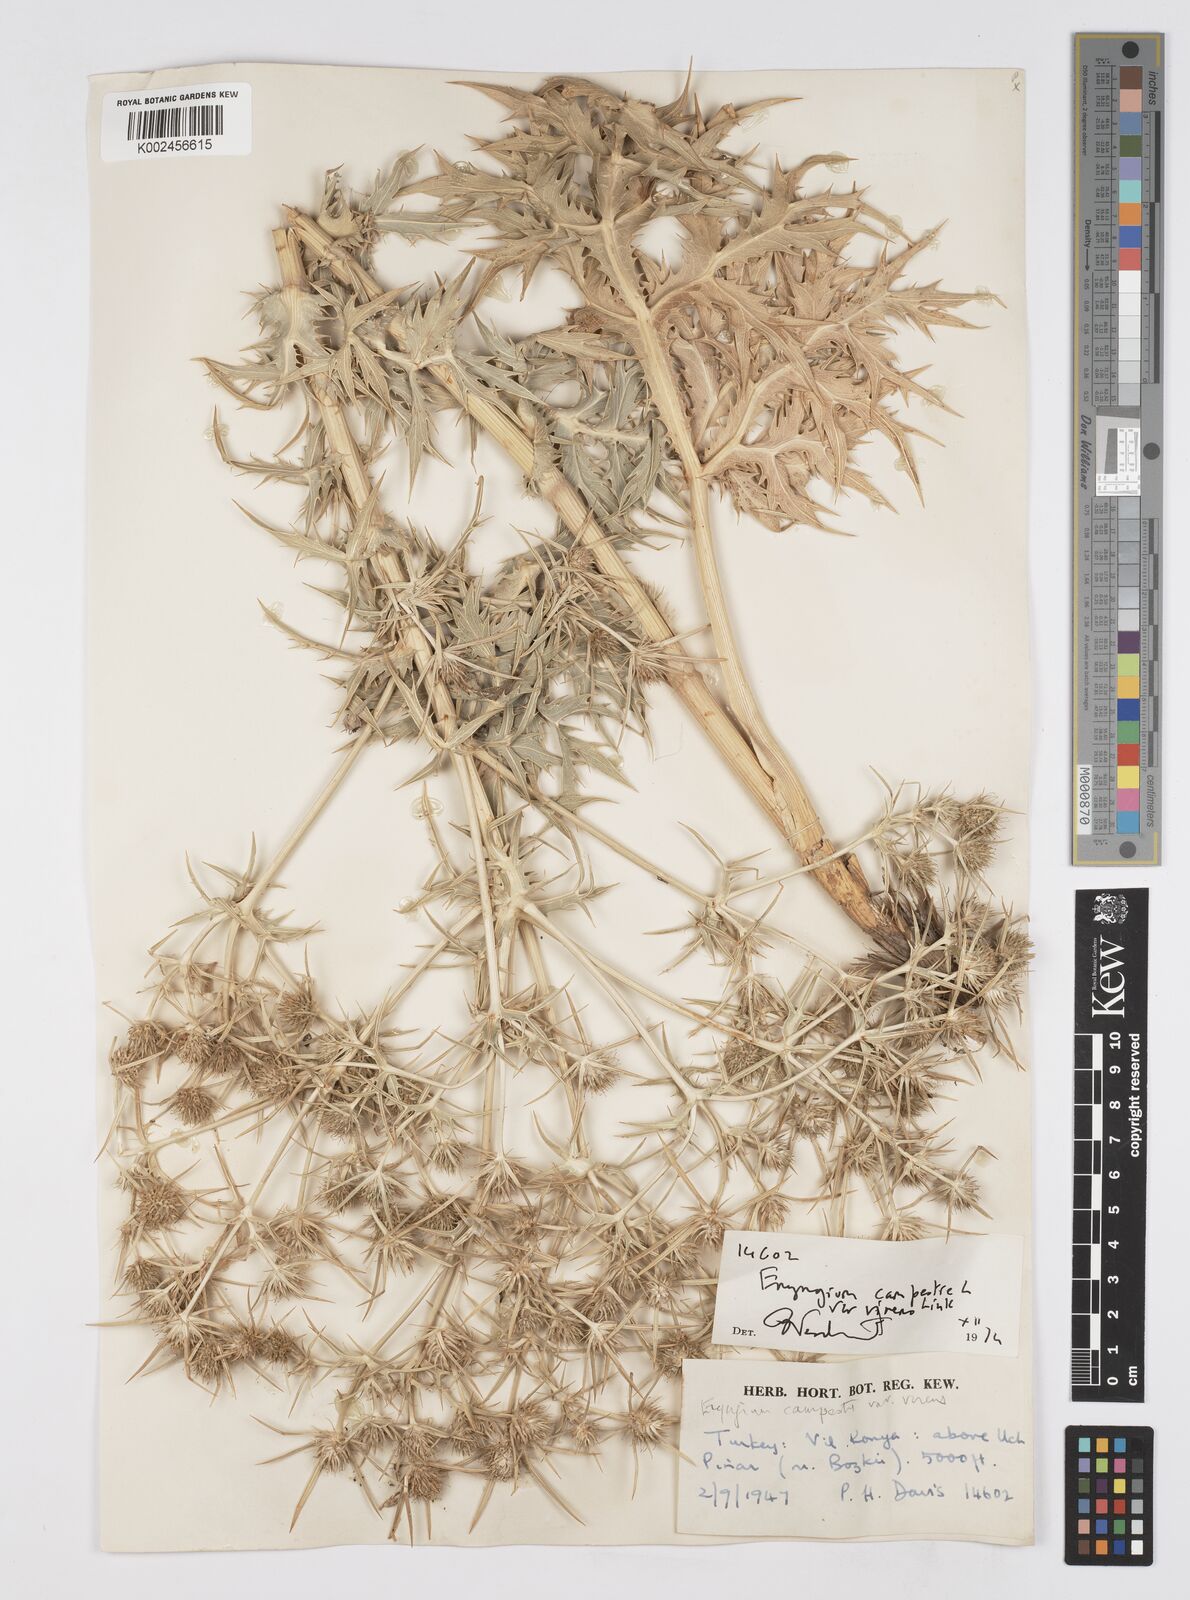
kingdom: Plantae
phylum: Tracheophyta
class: Magnoliopsida
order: Apiales
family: Apiaceae
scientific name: Apiaceae
